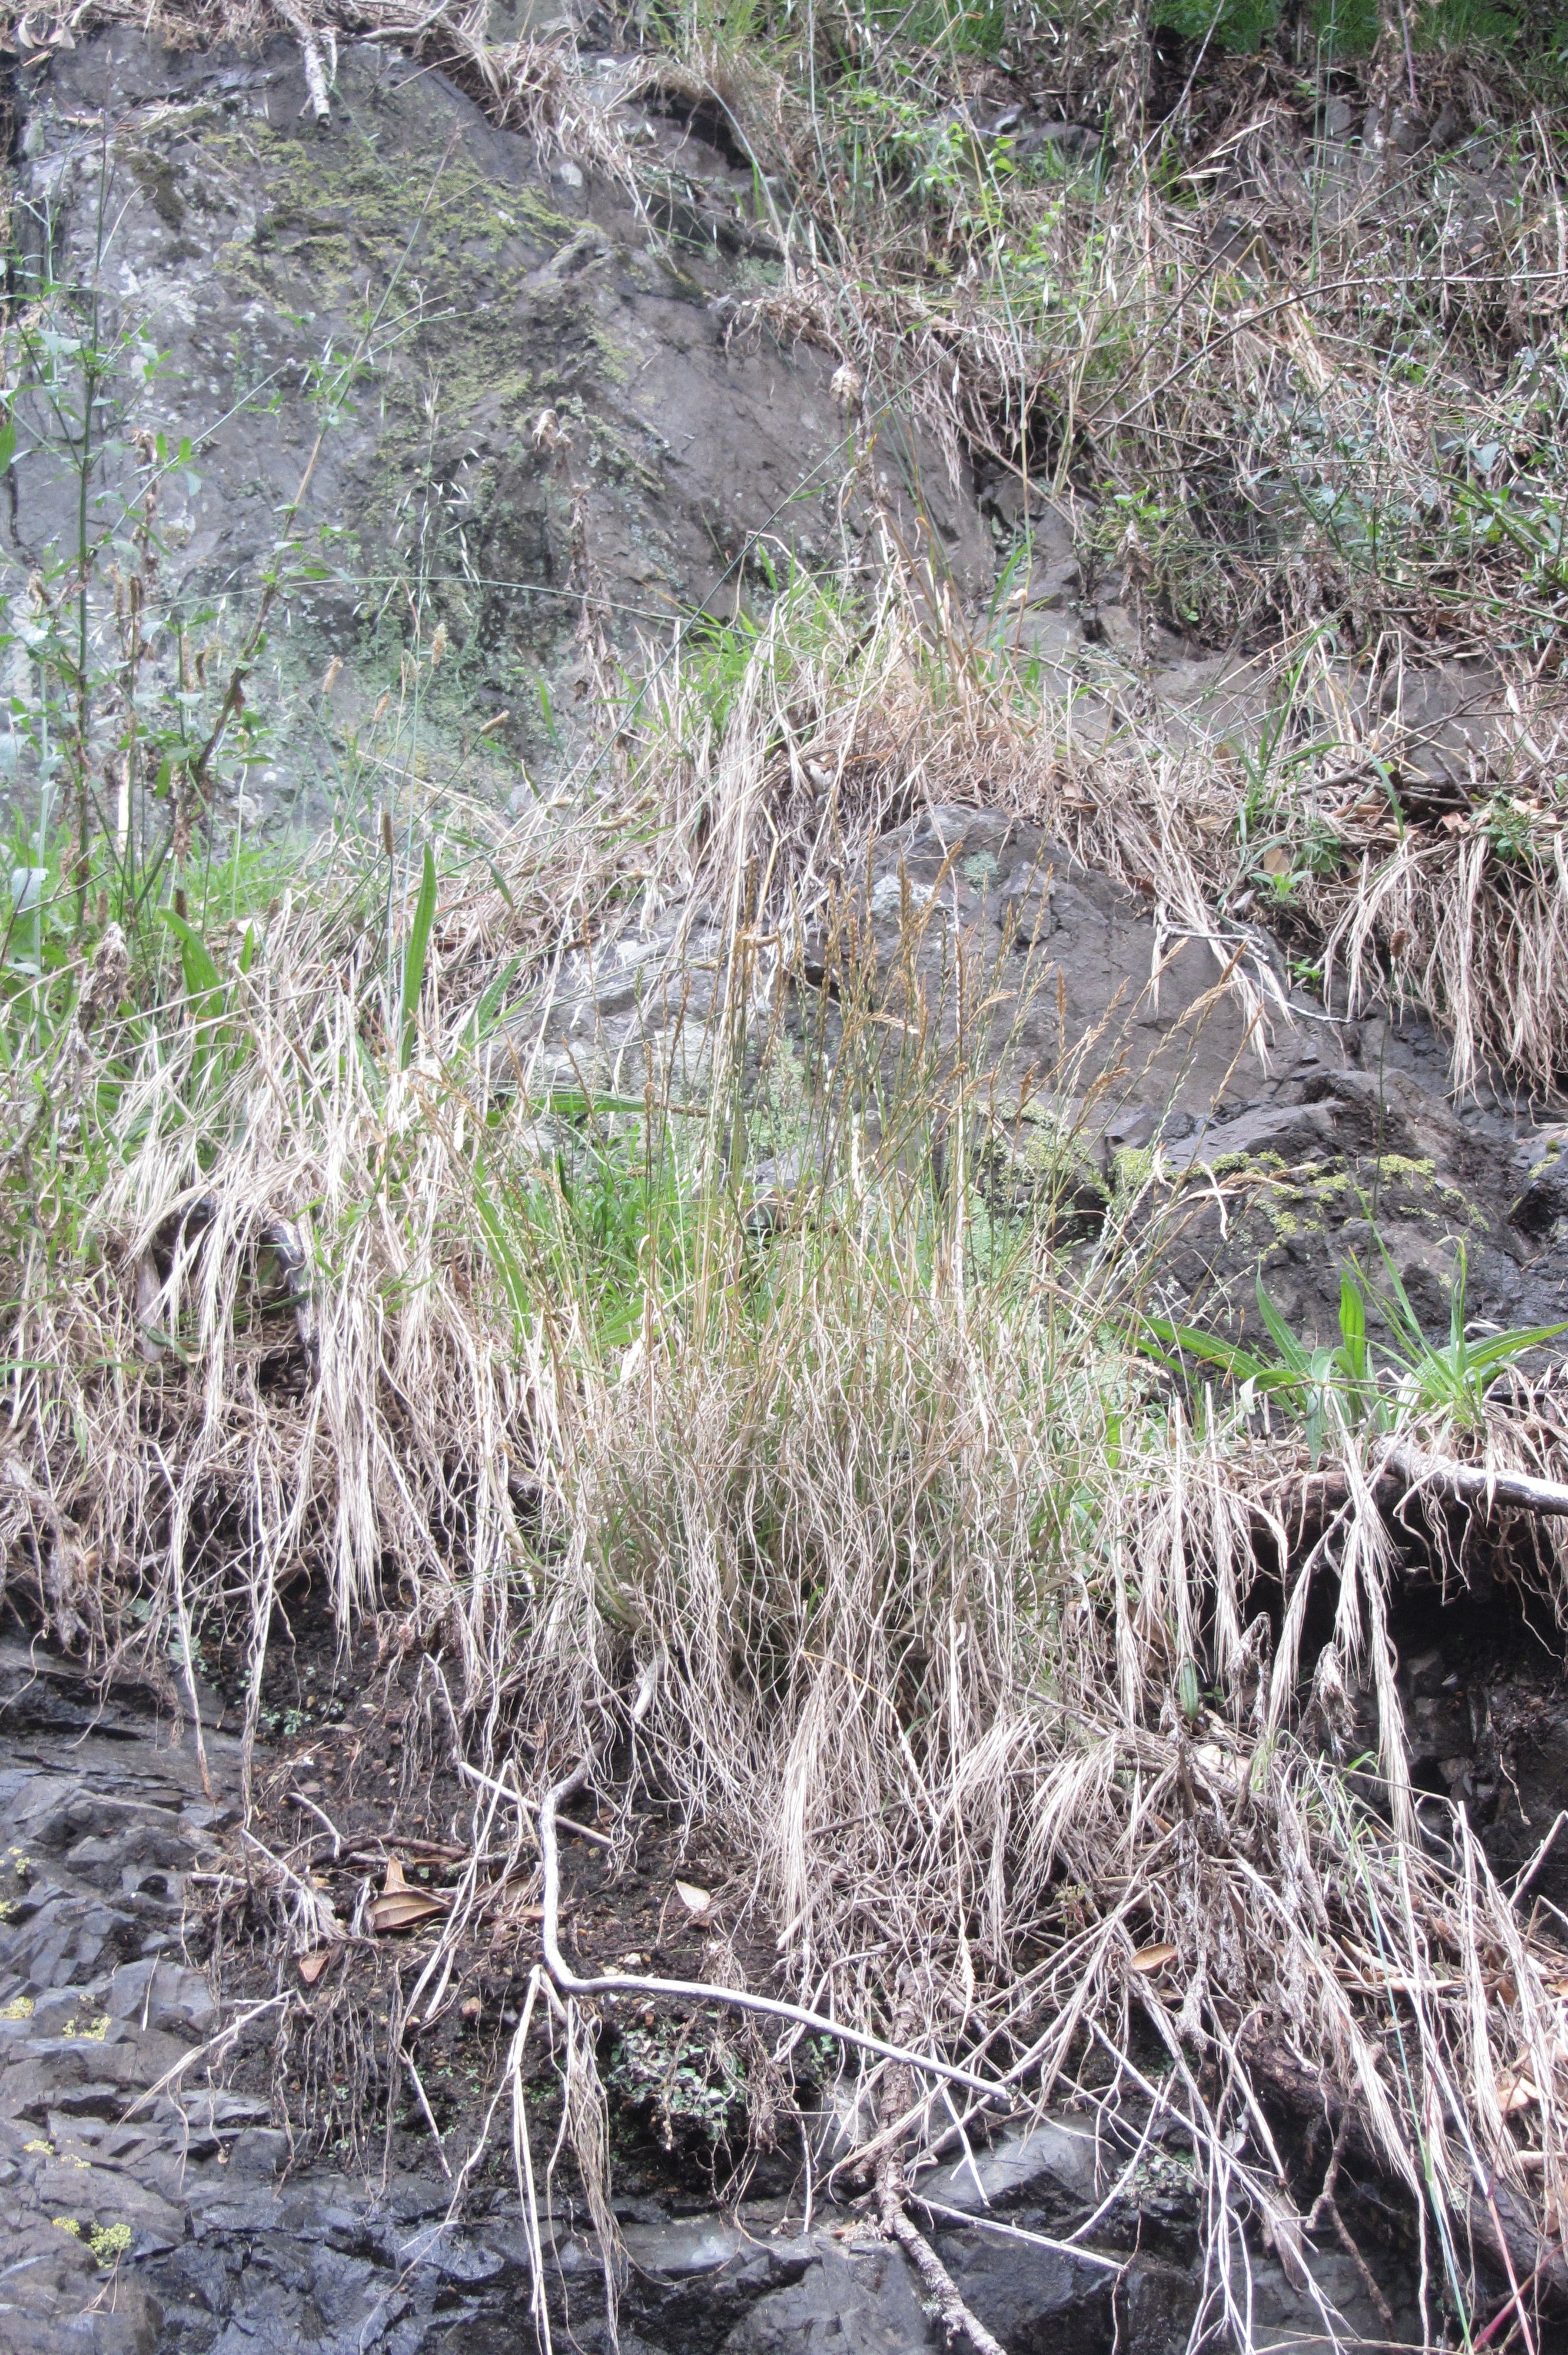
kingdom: Plantae
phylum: Tracheophyta
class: Liliopsida
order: Poales
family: Poaceae
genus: Lolium
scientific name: Lolium holmbergii
